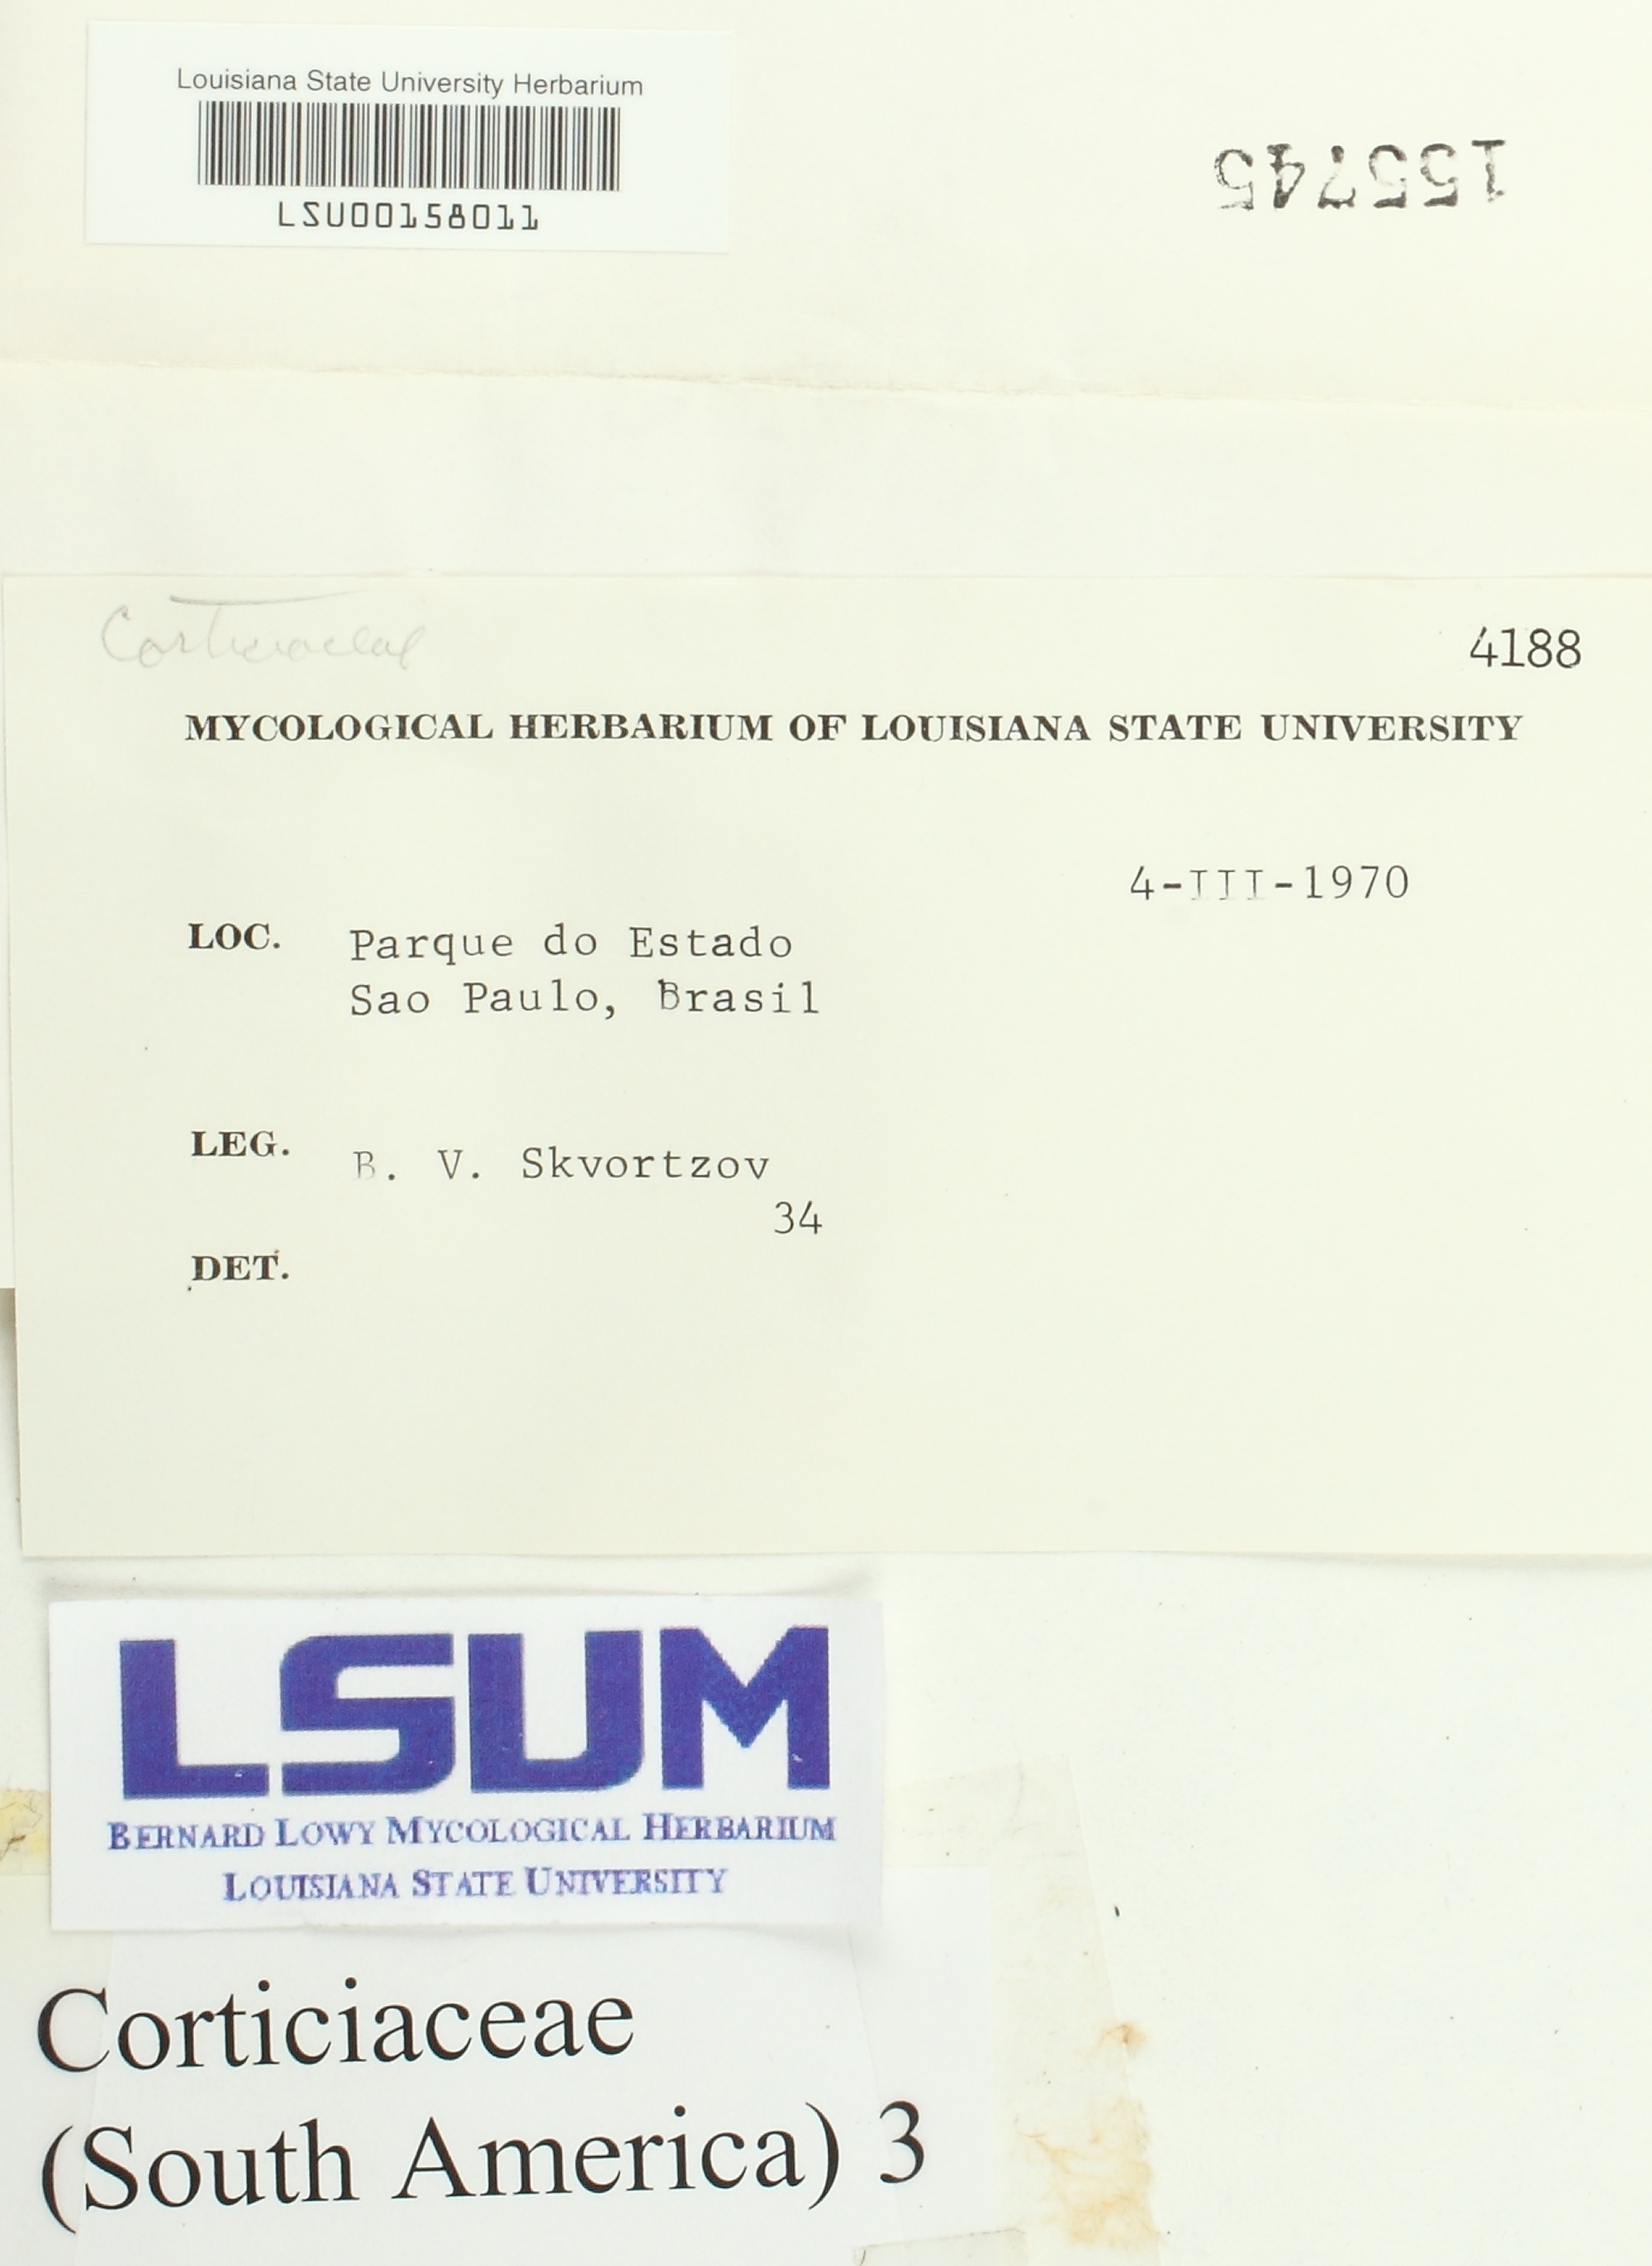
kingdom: Fungi
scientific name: Fungi
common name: Fungi
